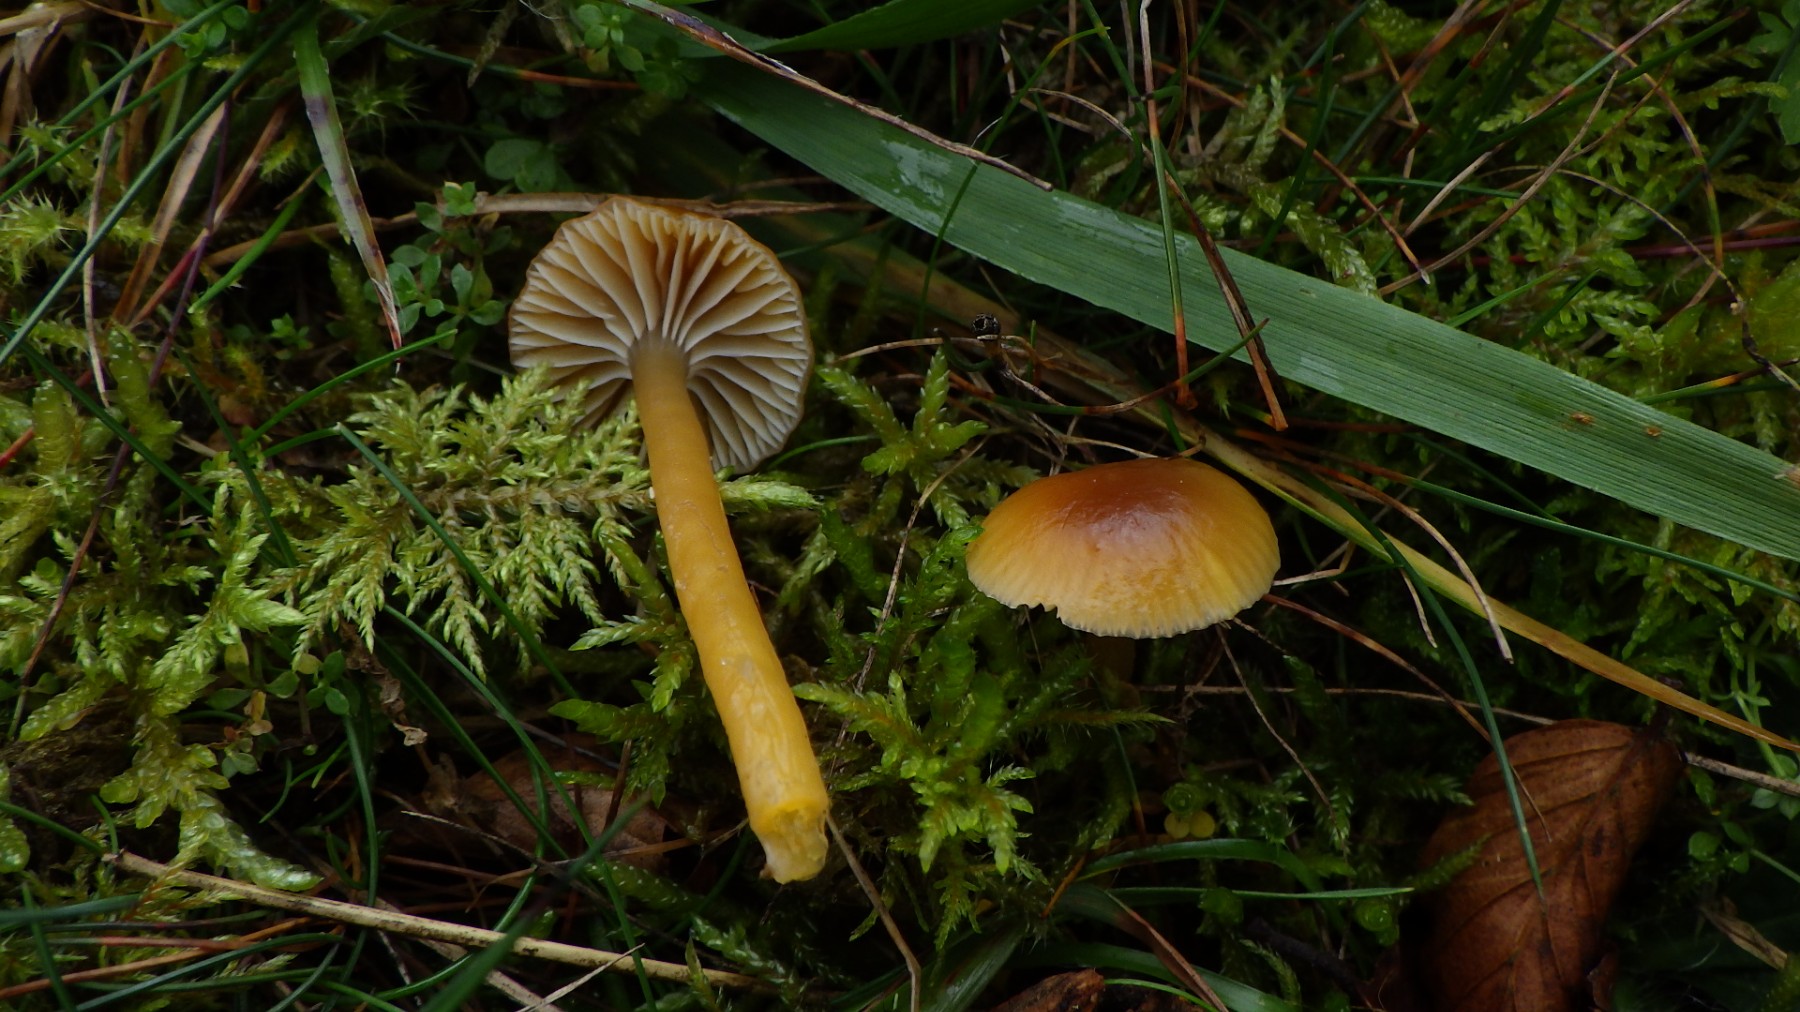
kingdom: Fungi
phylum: Basidiomycota
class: Agaricomycetes
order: Agaricales
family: Hygrophoraceae
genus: Gliophorus
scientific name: Gliophorus laetus
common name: brusk-vokshat
